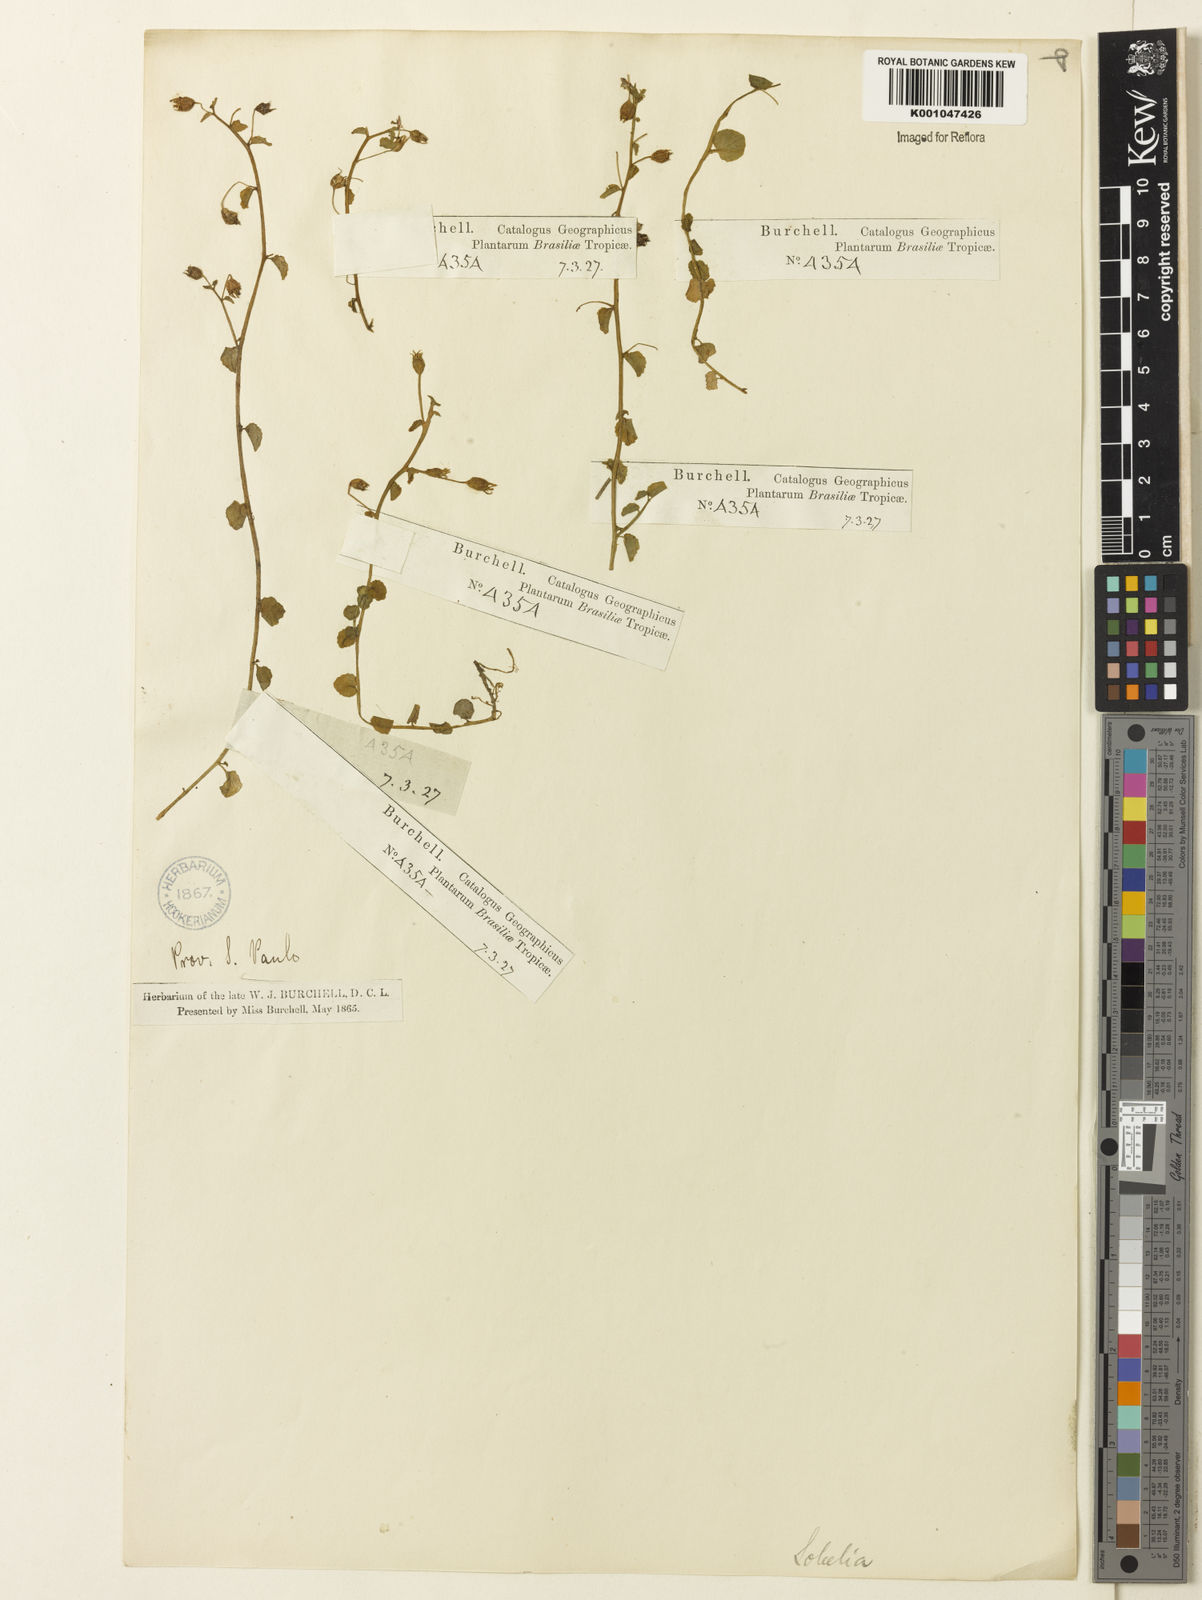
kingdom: Plantae
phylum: Tracheophyta
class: Magnoliopsida
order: Asterales
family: Campanulaceae
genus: Lobelia
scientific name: Lobelia nummularioides
